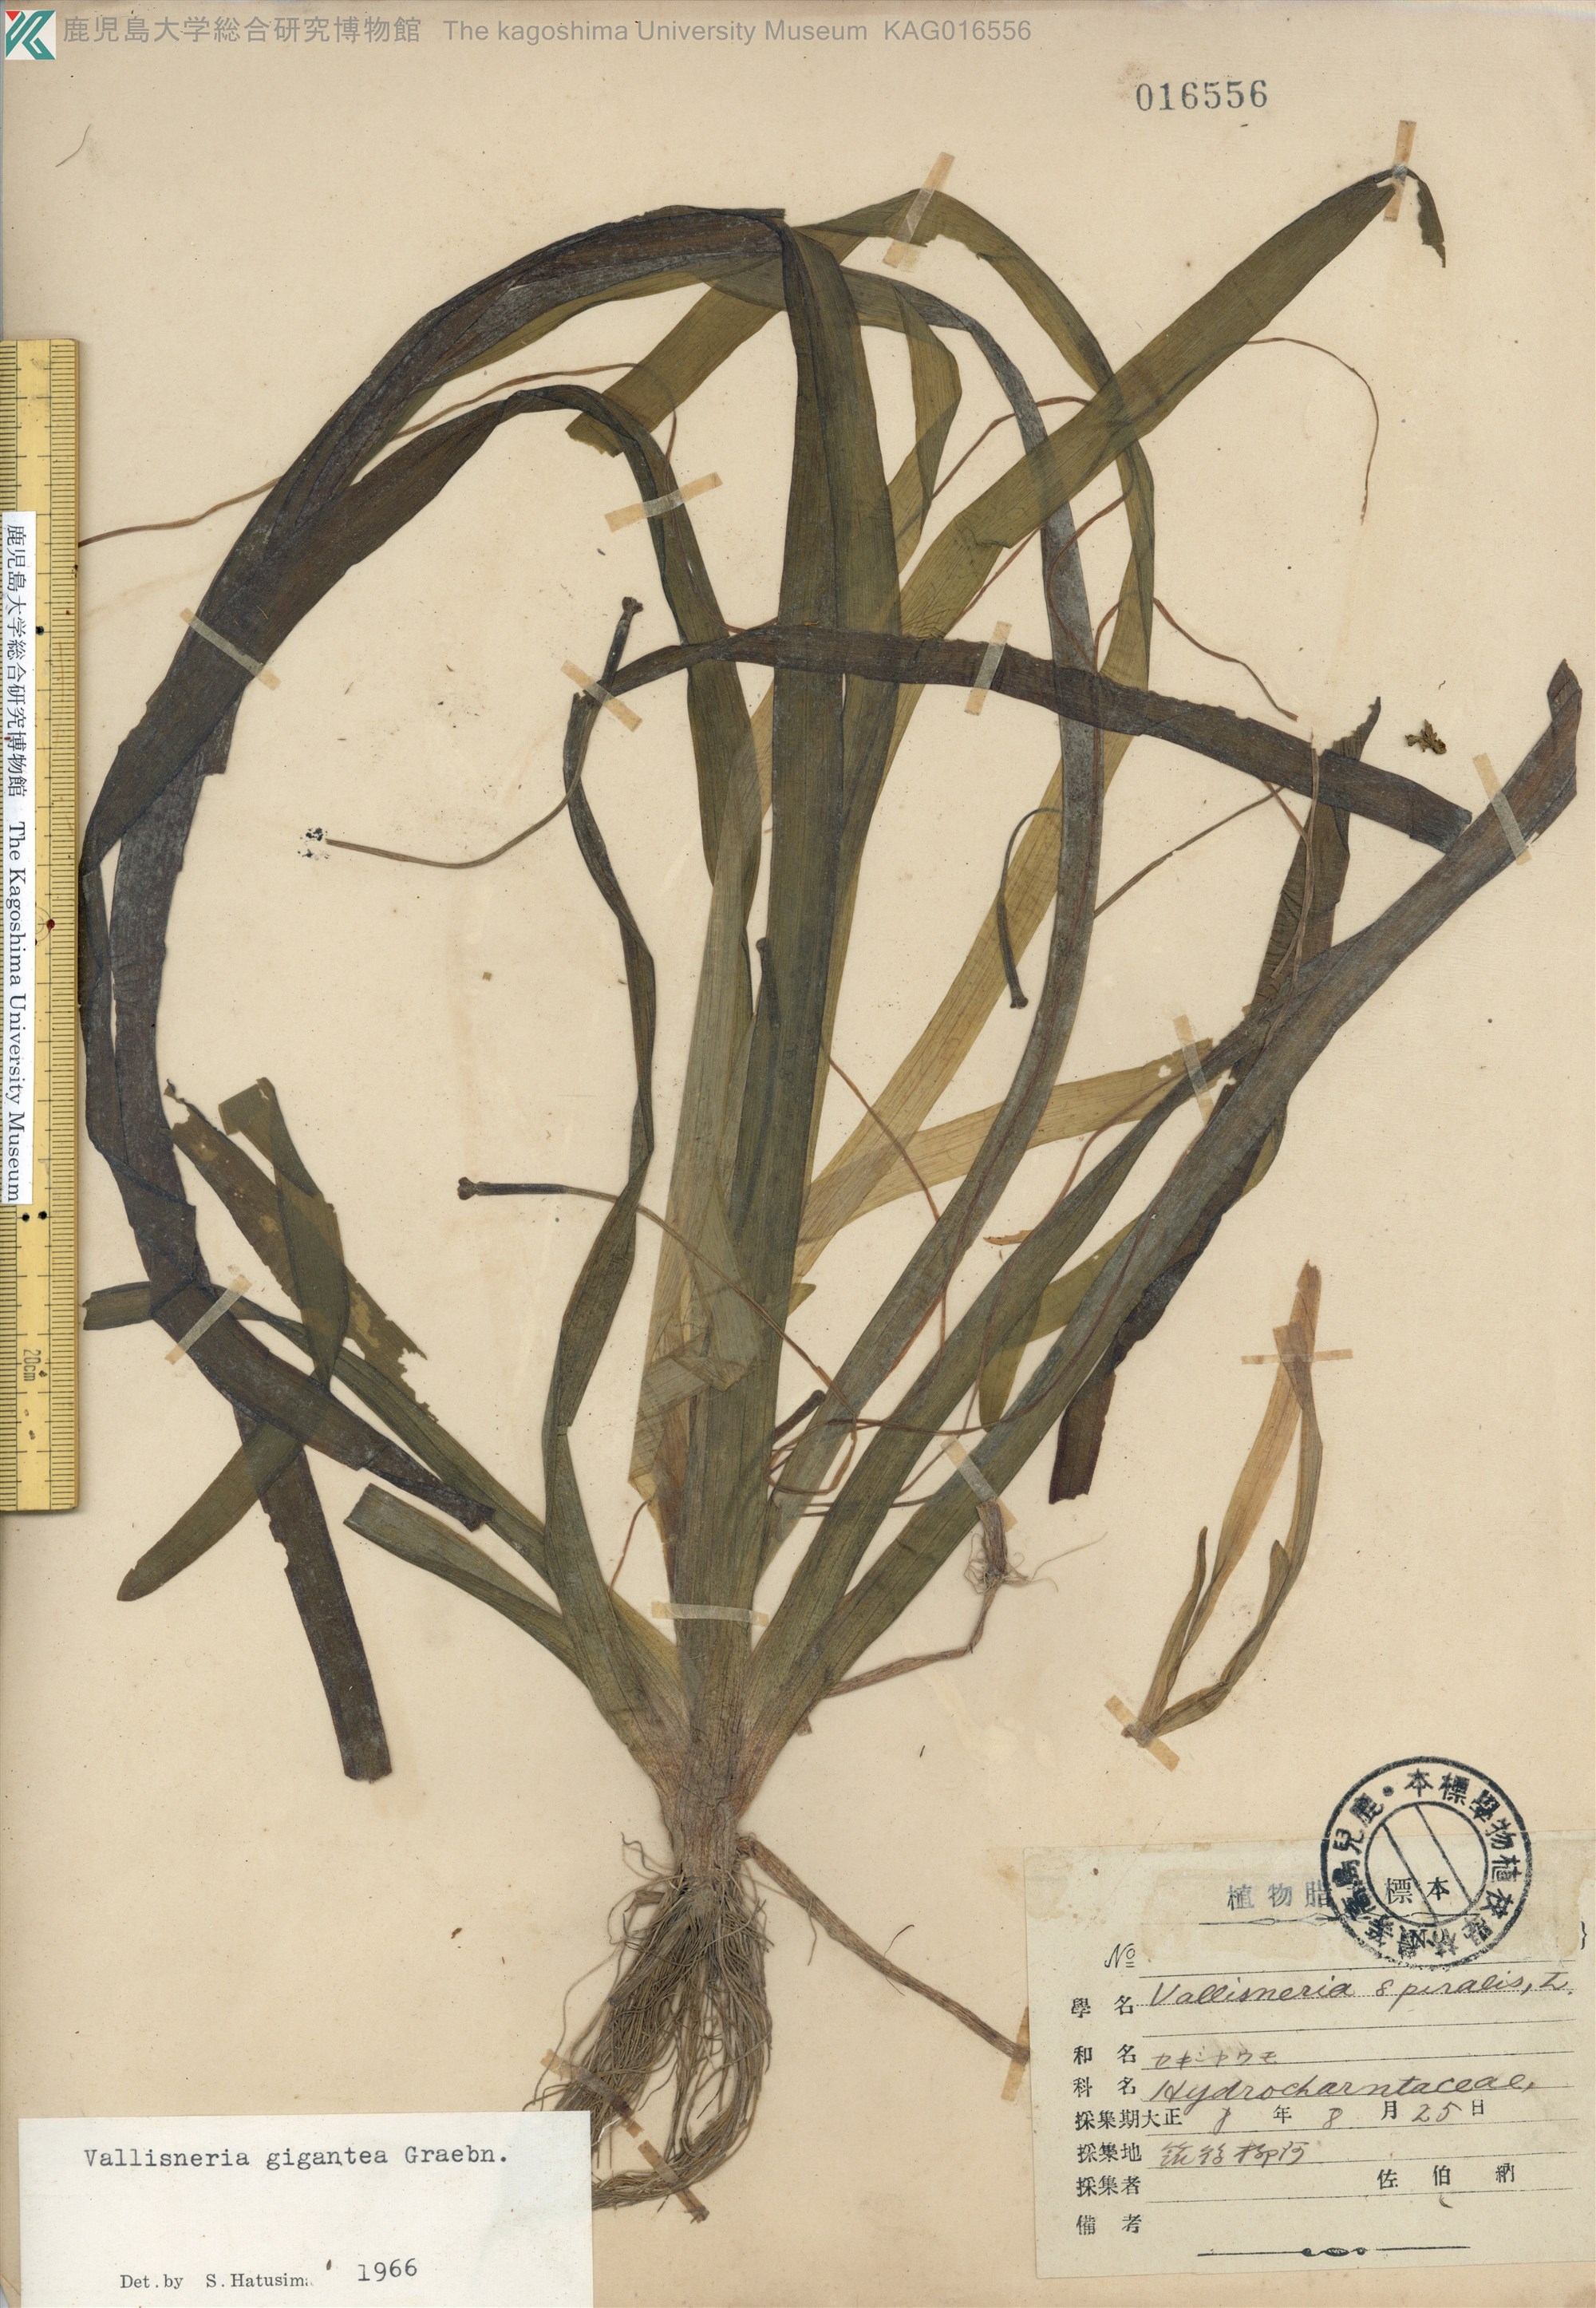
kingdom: Plantae
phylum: Tracheophyta
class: Liliopsida
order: Alismatales
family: Hydrocharitaceae
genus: Vallisneria
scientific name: Vallisneria natans
